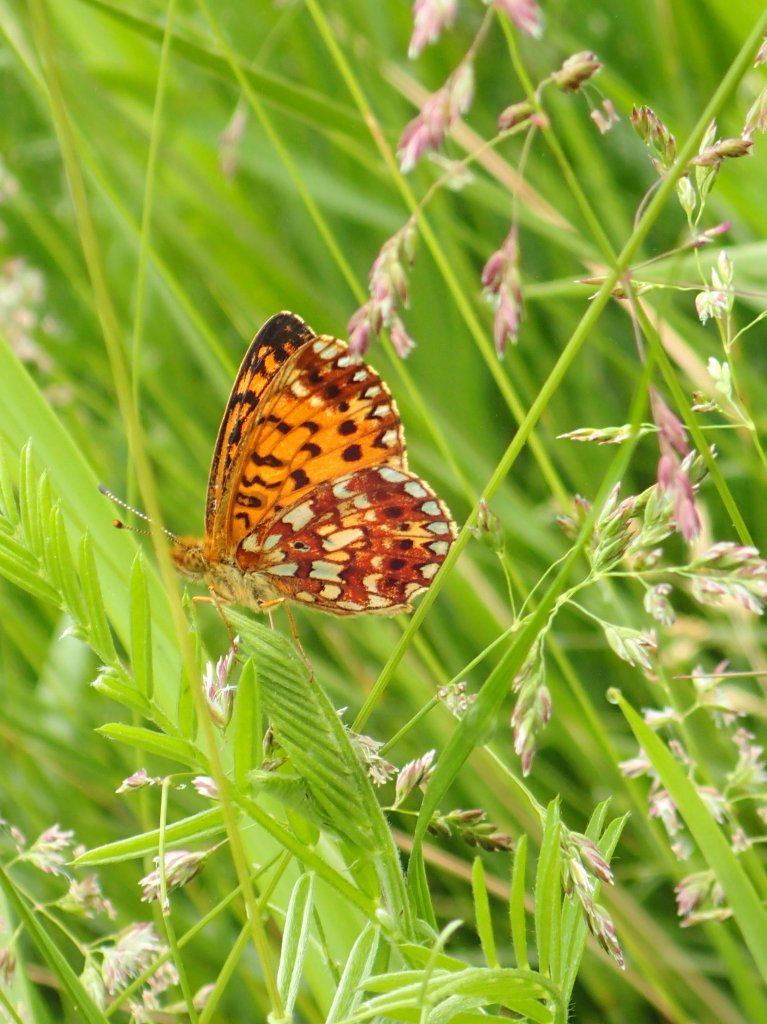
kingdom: Animalia
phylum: Arthropoda
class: Insecta
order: Lepidoptera
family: Nymphalidae
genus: Boloria
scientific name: Boloria selene
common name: Silver-bordered Fritillary
